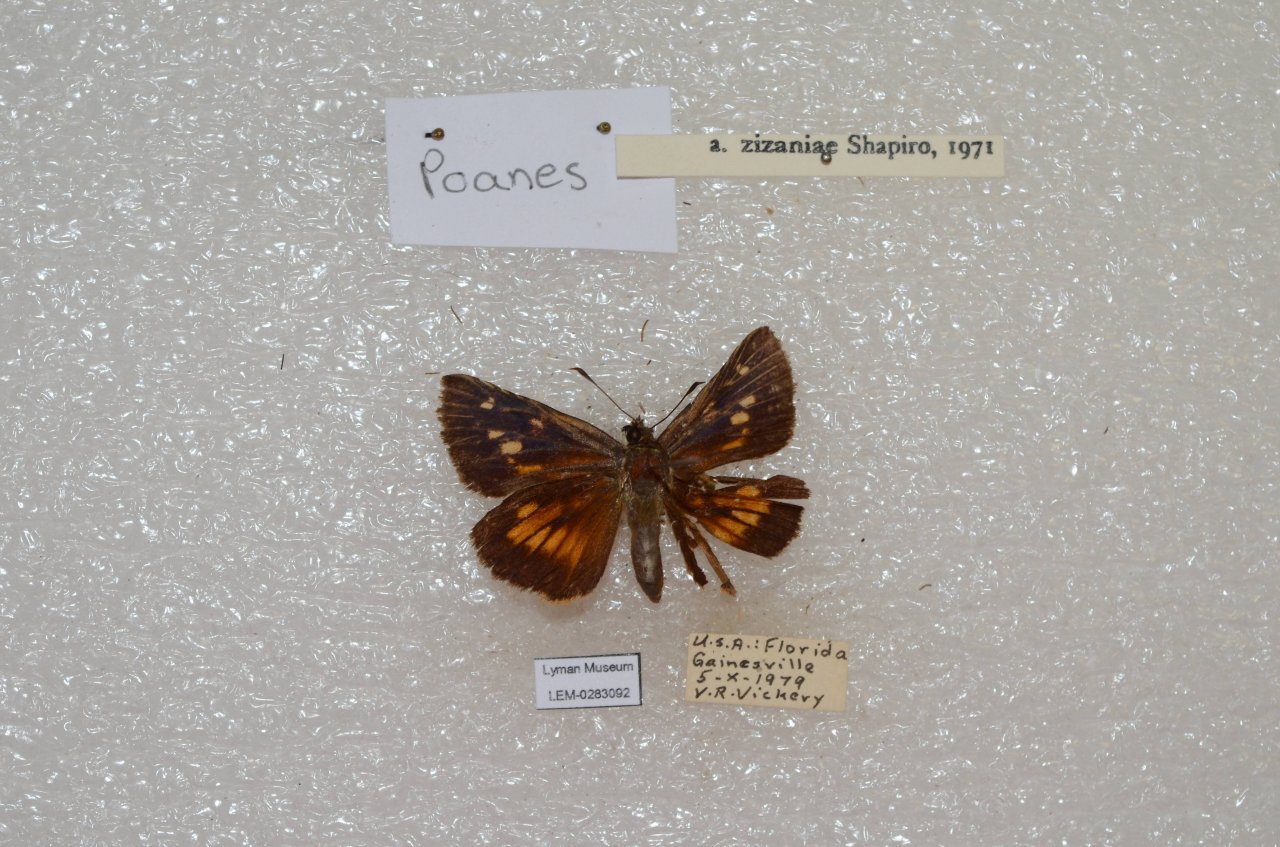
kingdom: Animalia
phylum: Arthropoda
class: Insecta
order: Lepidoptera
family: Hesperiidae
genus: Poanes
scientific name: Poanes viator
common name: Broad-winged Skipper
